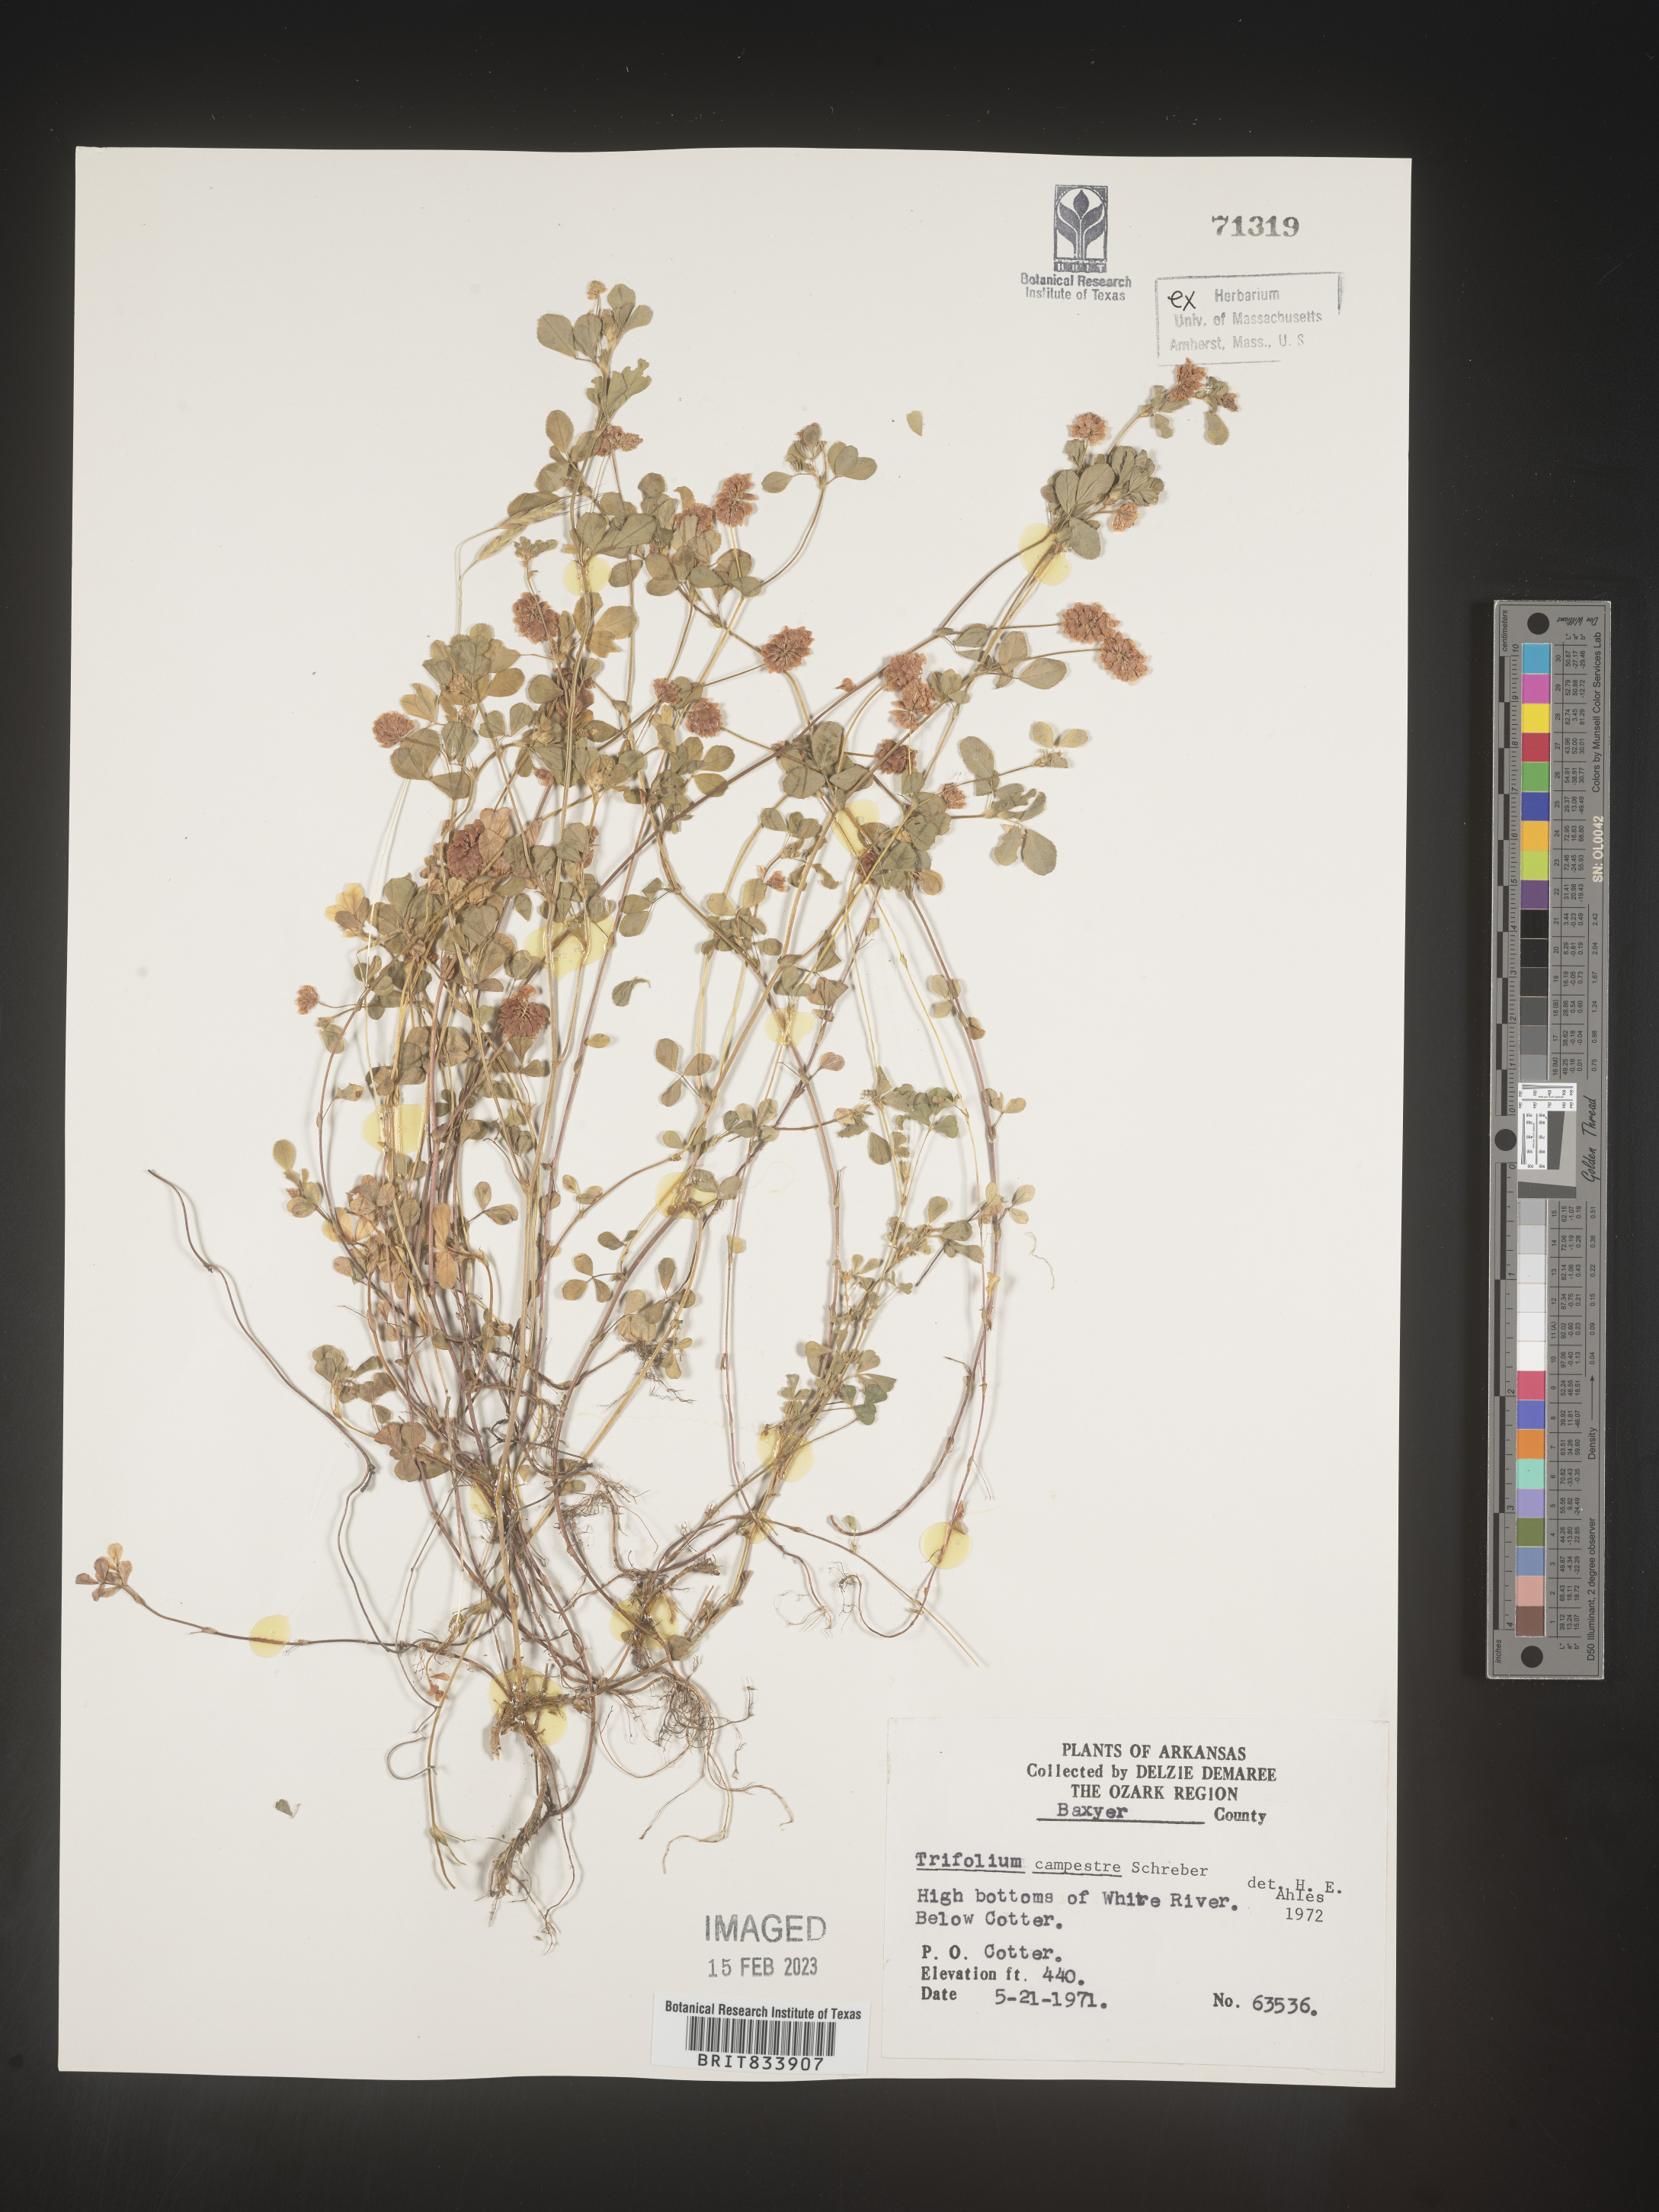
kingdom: Plantae
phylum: Tracheophyta
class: Magnoliopsida
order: Fabales
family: Fabaceae
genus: Trifolium
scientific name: Trifolium campestre
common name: Field clover
